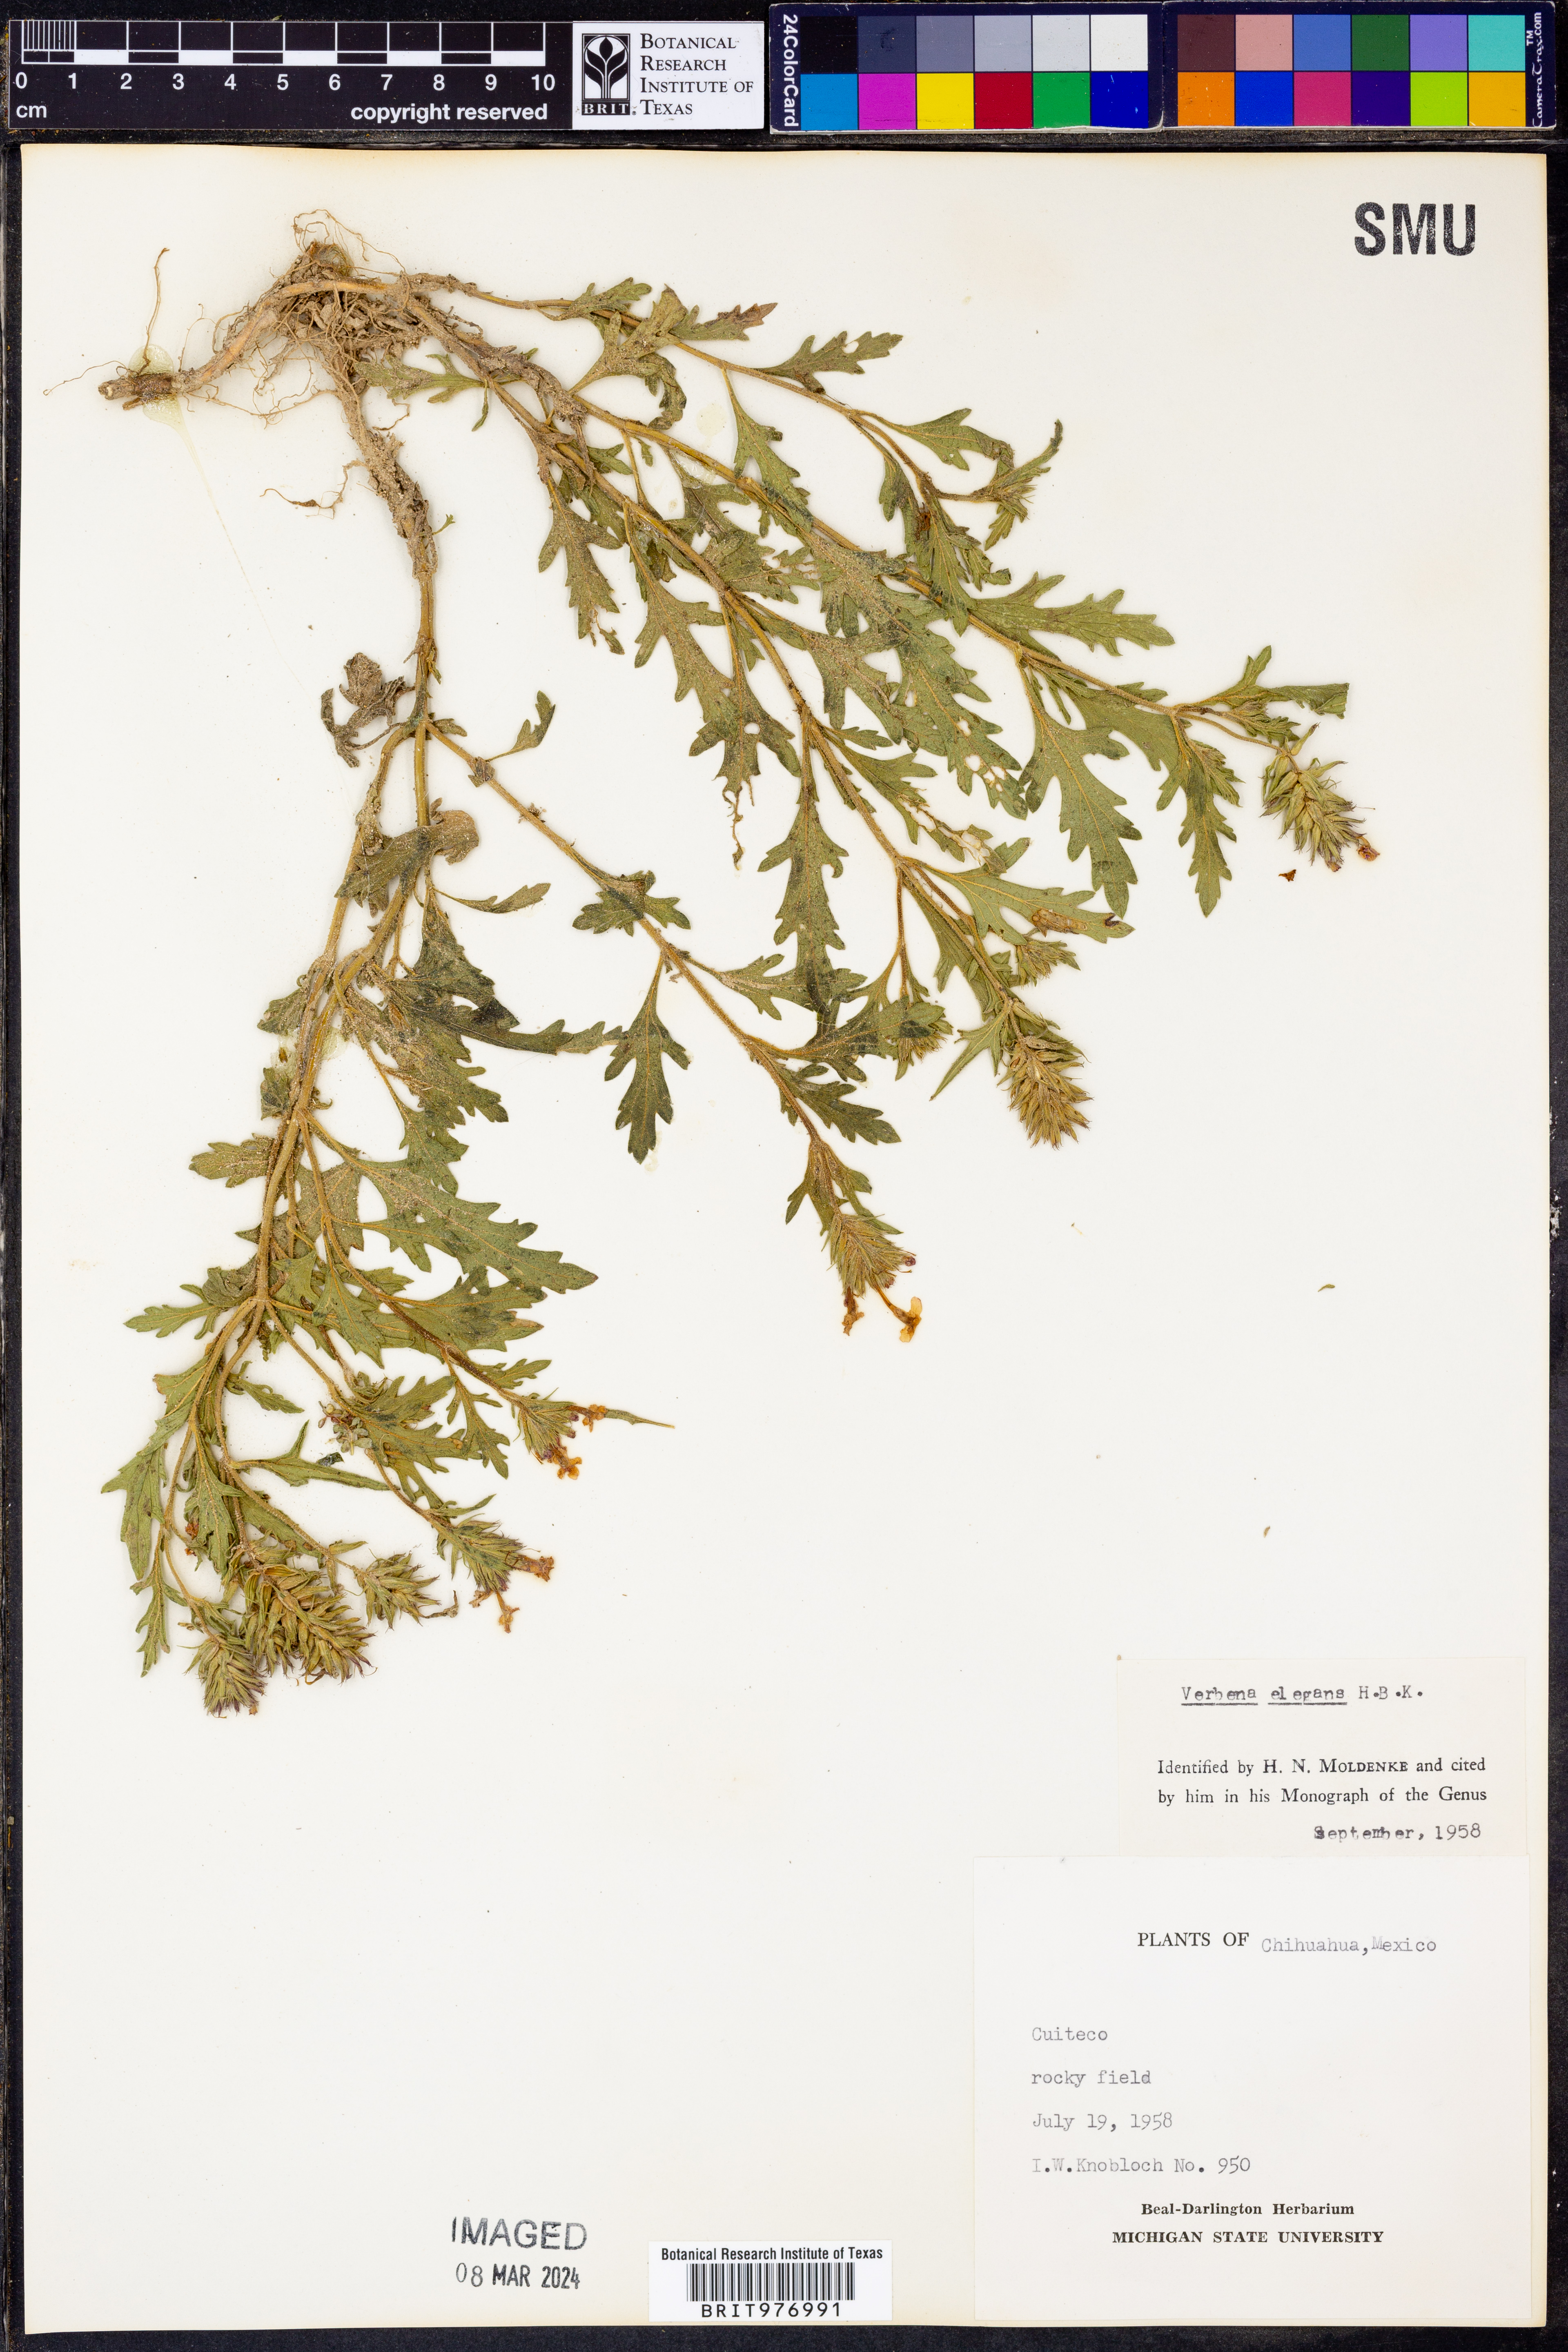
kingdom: Plantae
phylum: Tracheophyta
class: Magnoliopsida
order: Lamiales
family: Verbenaceae
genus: Verbena
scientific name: Verbena elegans
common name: Elegant vervain
